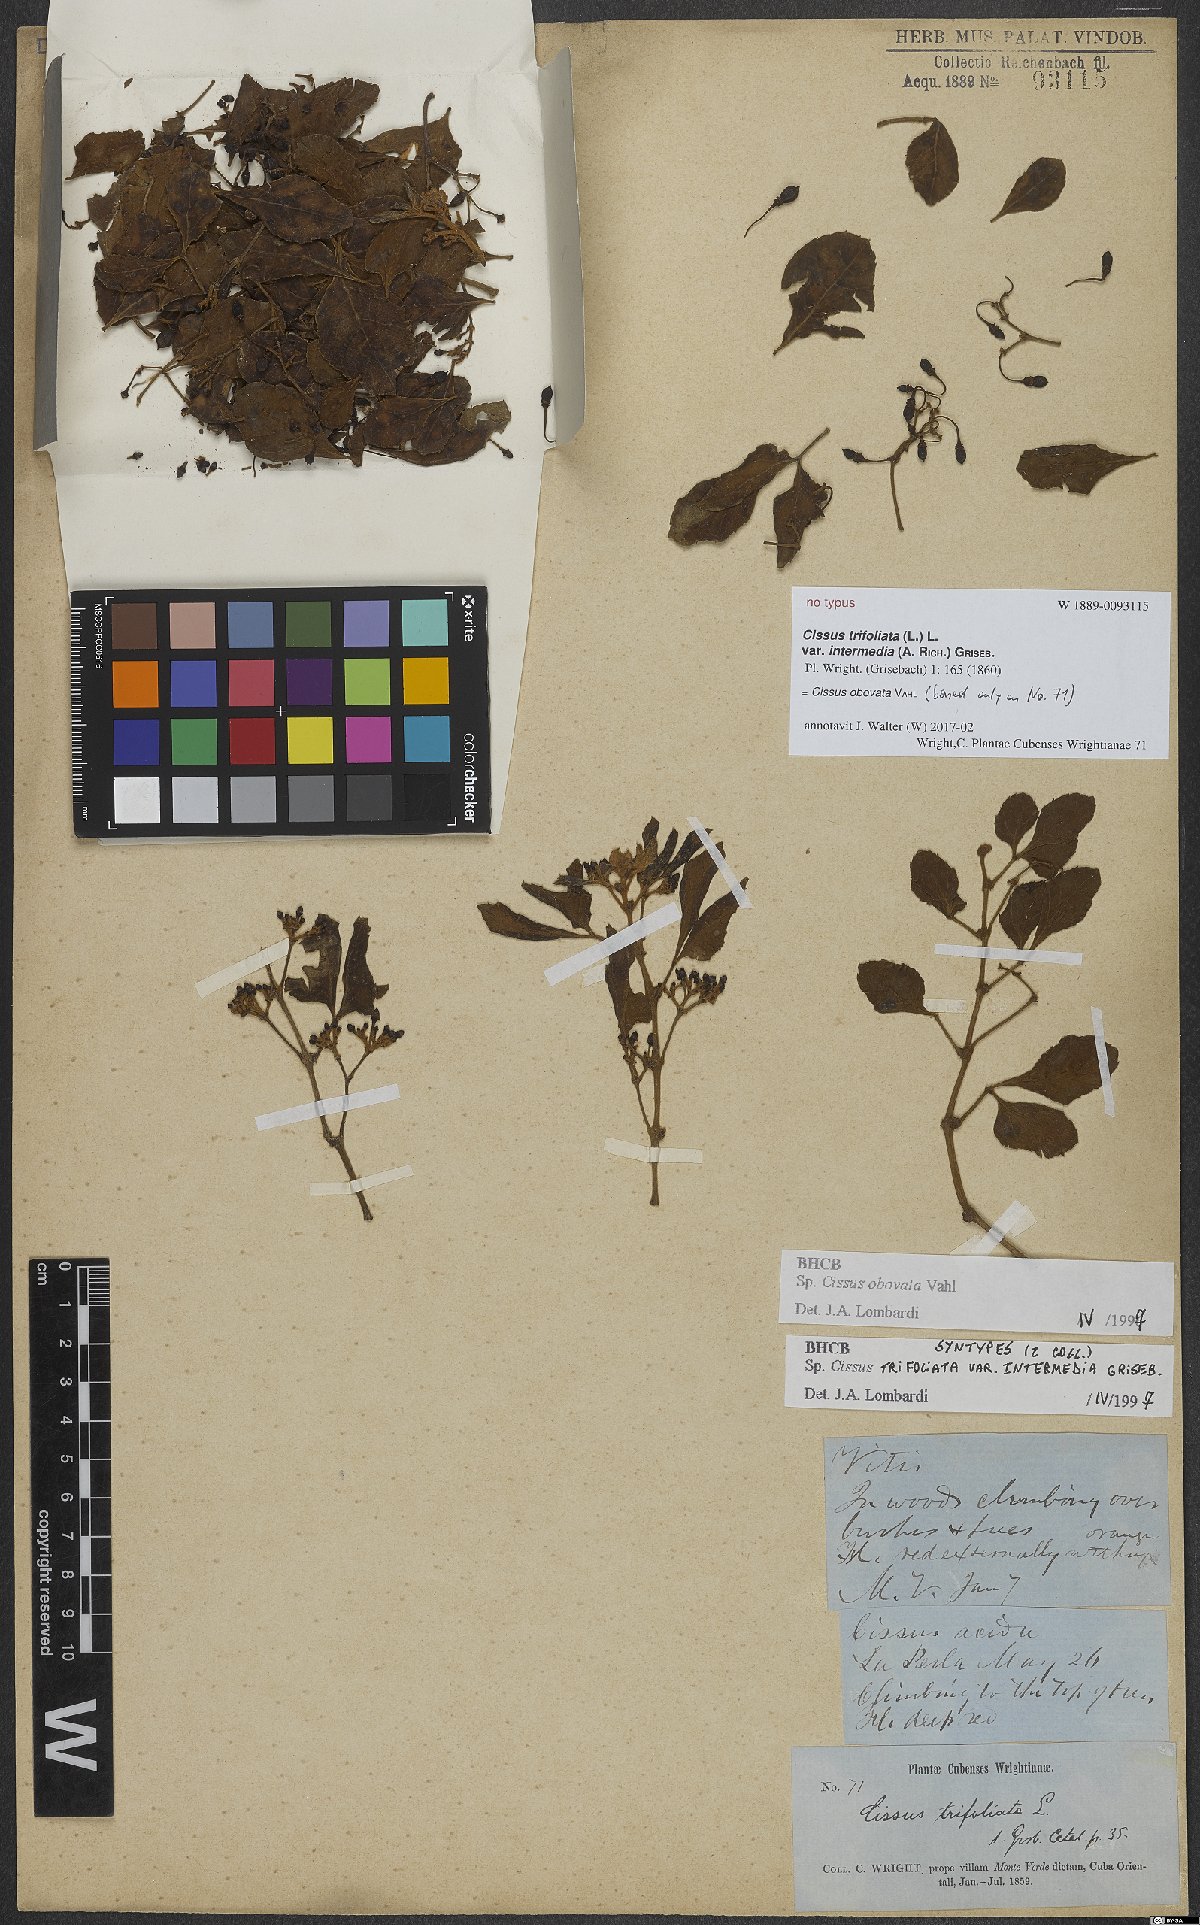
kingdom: Plantae
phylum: Tracheophyta
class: Magnoliopsida
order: Vitales
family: Vitaceae
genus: Cissus
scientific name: Cissus obovata
